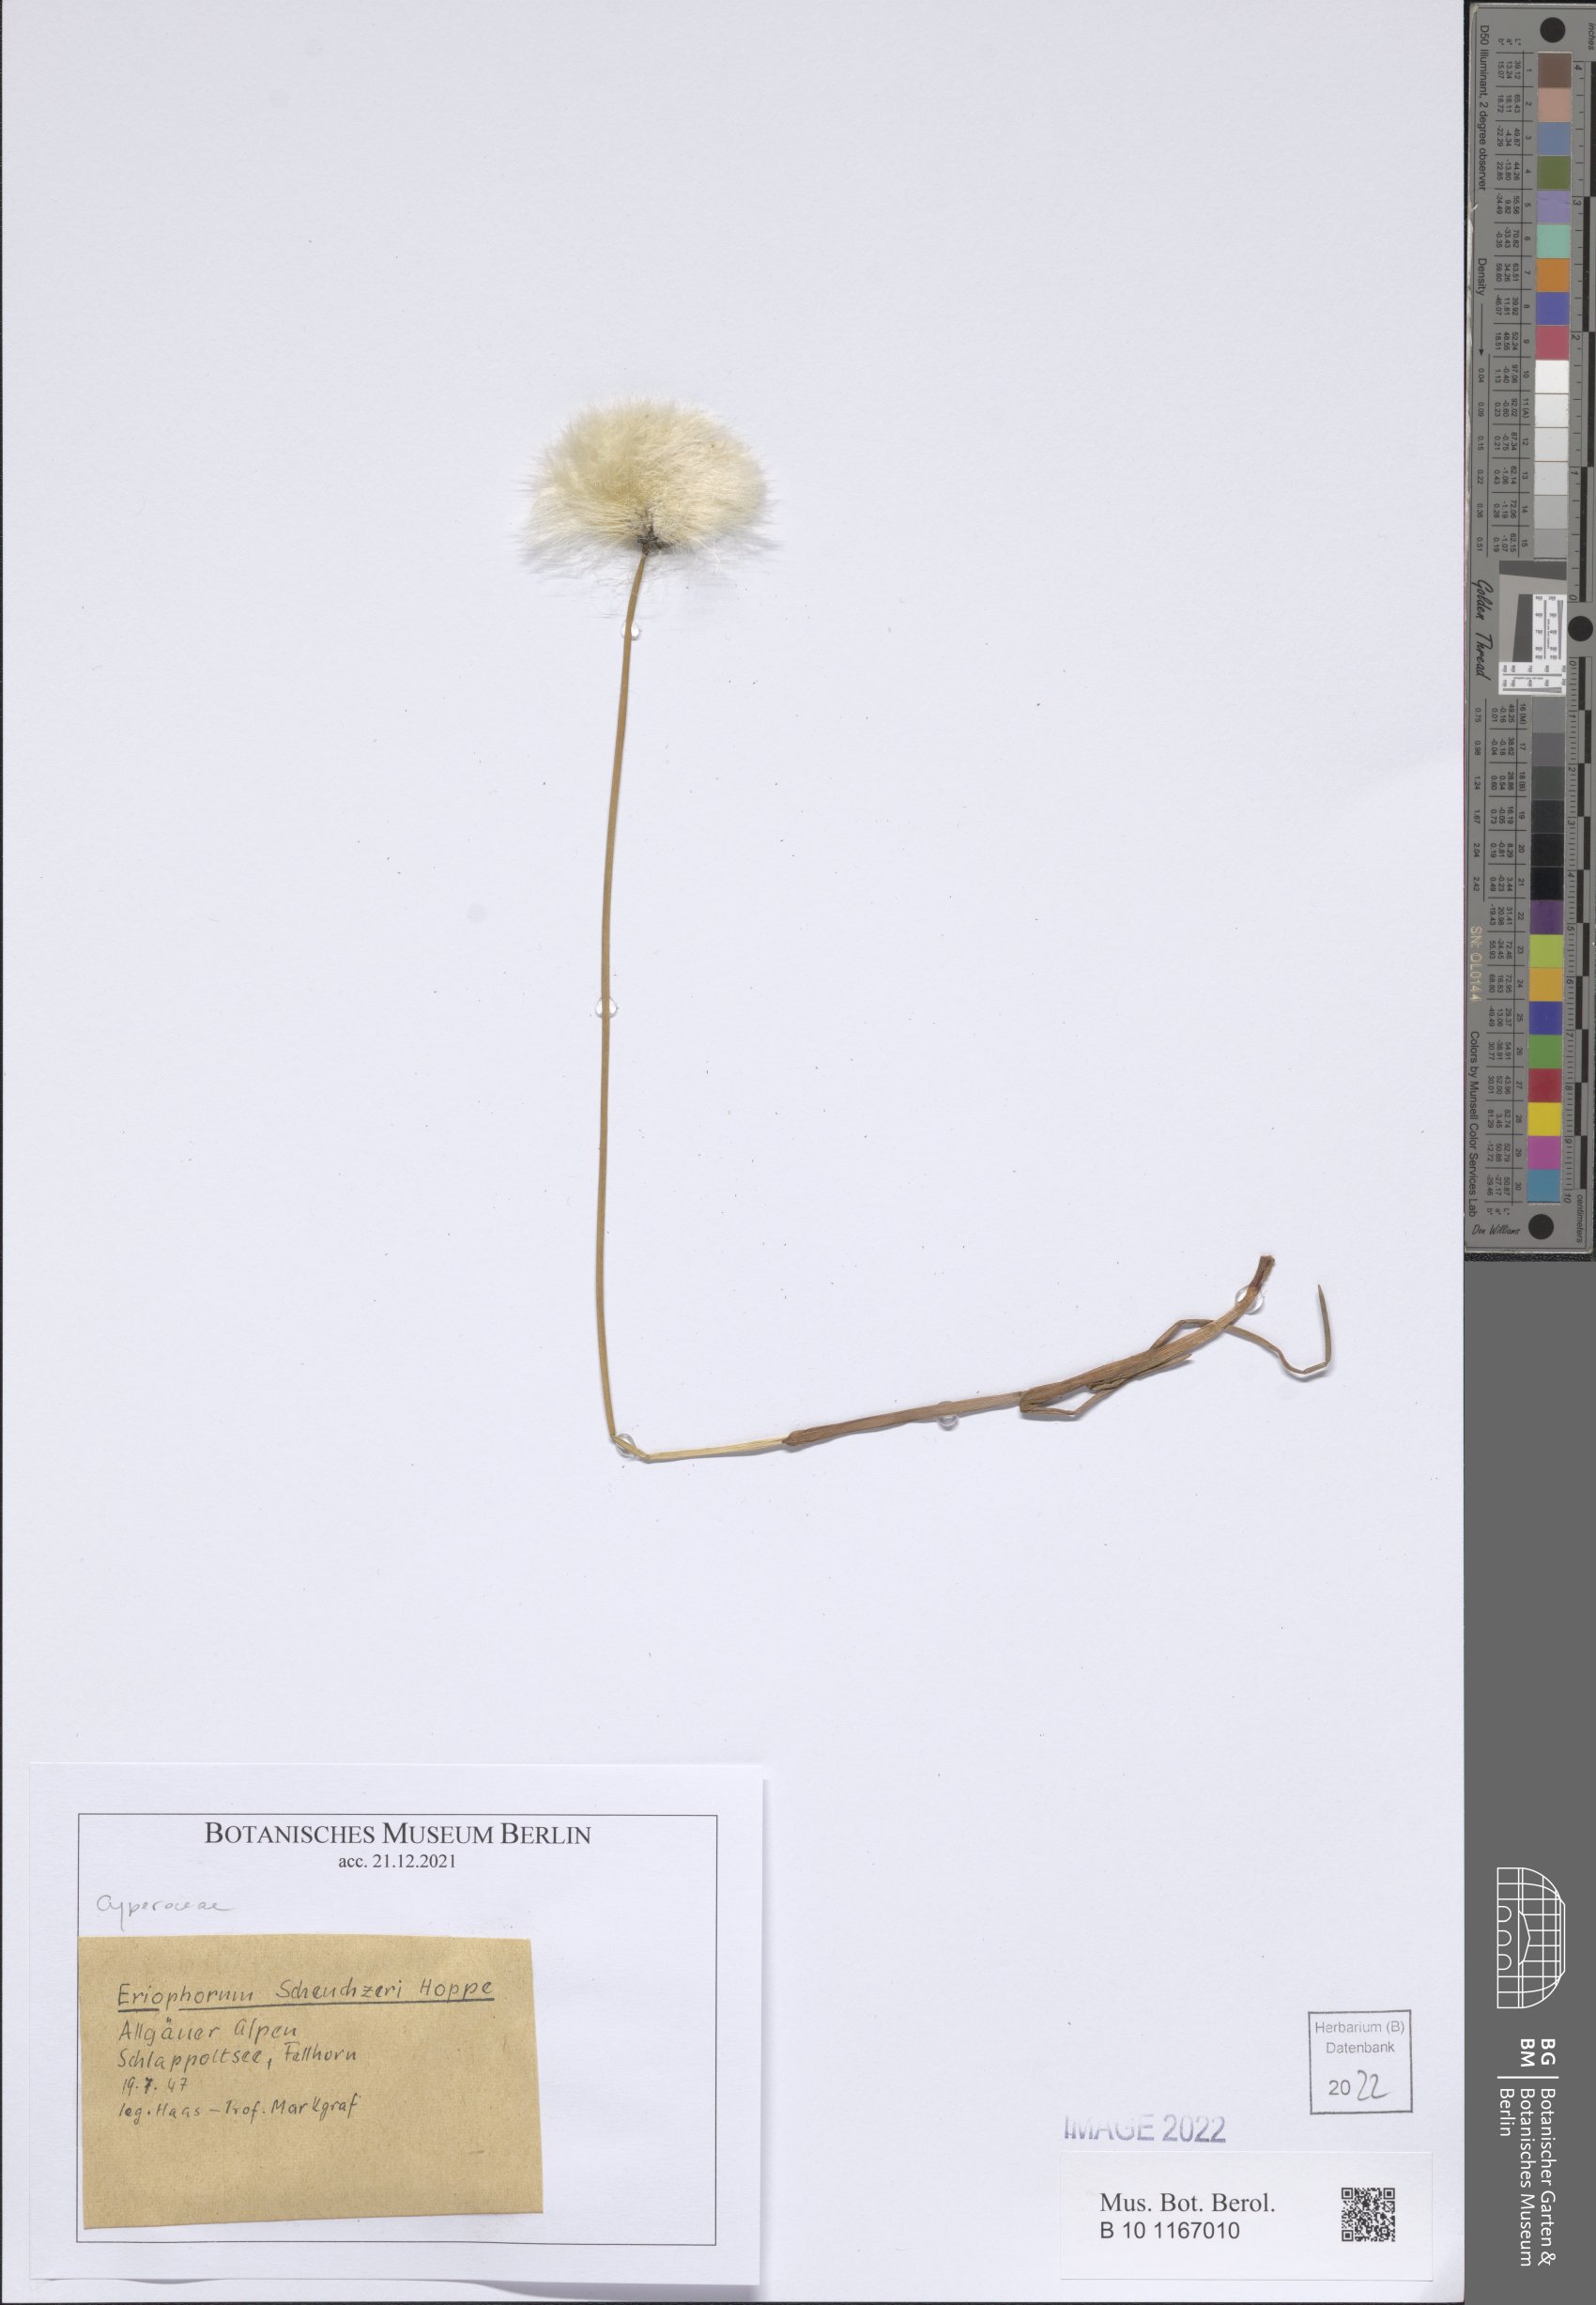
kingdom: Plantae
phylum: Tracheophyta
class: Liliopsida
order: Poales
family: Cyperaceae
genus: Eriophorum
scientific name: Eriophorum scheuchzeri
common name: Scheuchzer's cottongrass
